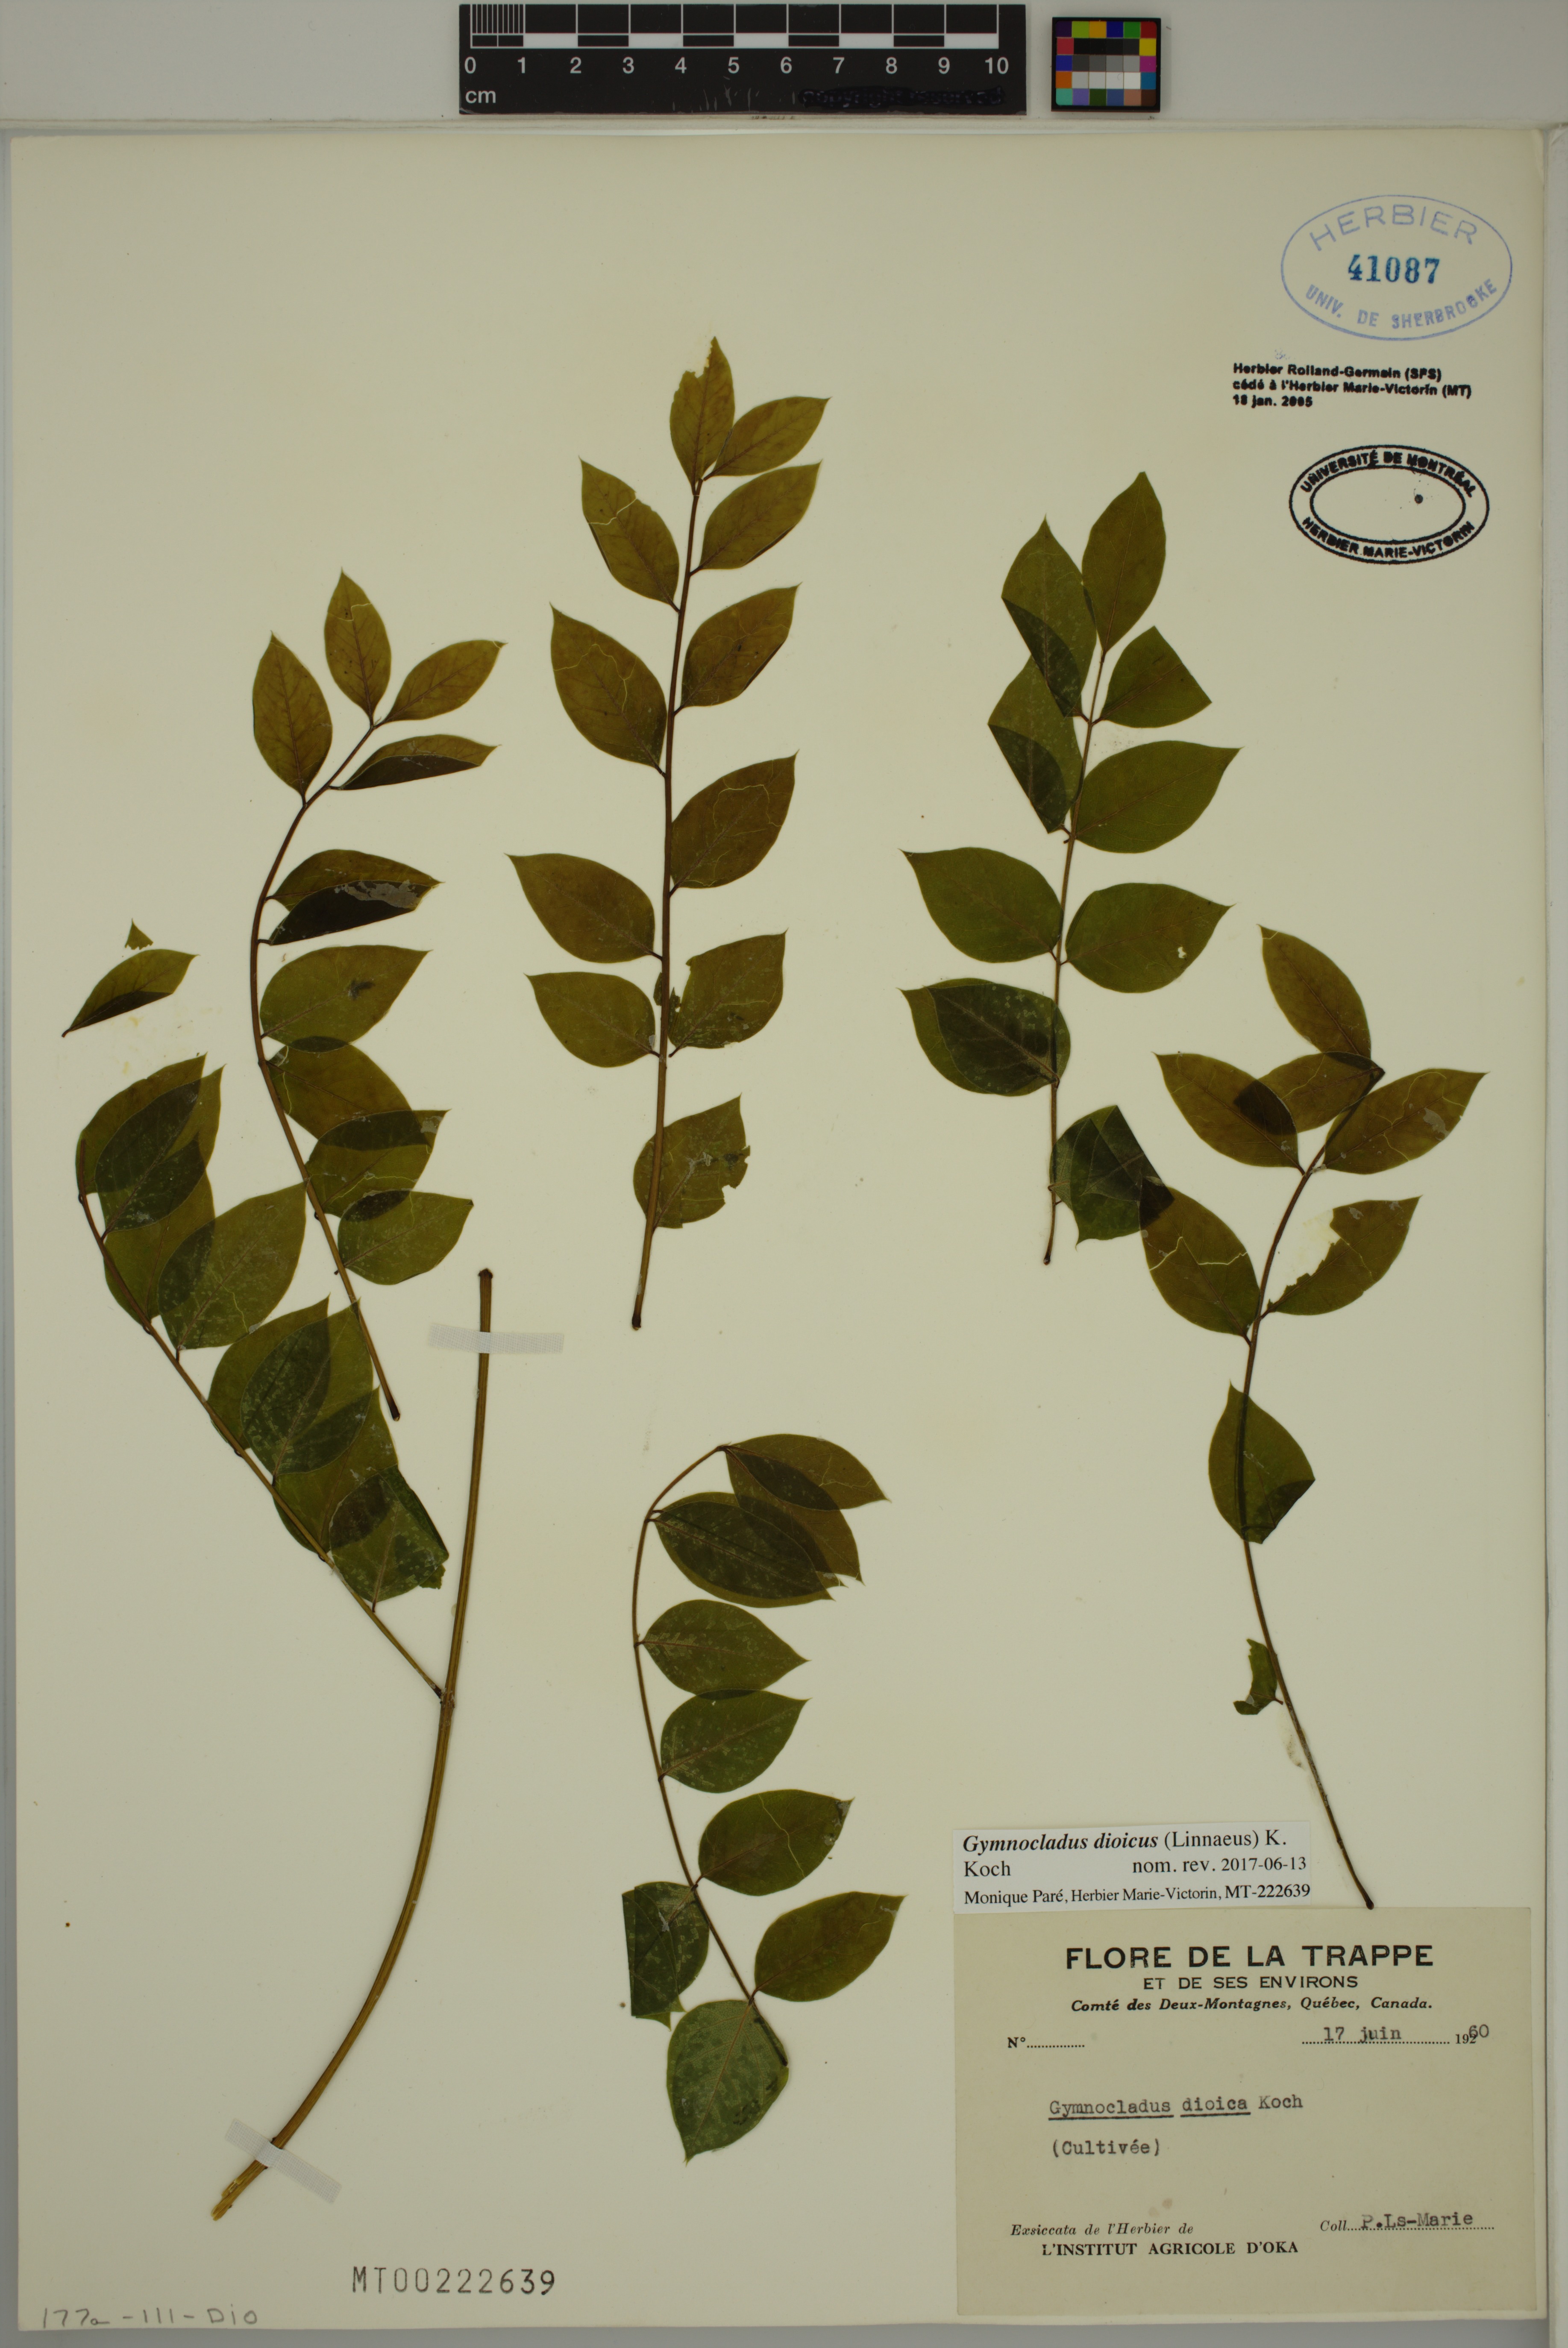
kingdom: Plantae
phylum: Tracheophyta
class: Magnoliopsida
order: Fabales
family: Fabaceae
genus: Gymnocladus
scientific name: Gymnocladus dioicus
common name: Kentucky coffee-tree
